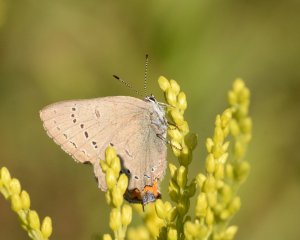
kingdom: Animalia
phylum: Arthropoda
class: Insecta
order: Lepidoptera
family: Lycaenidae
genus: Strymon
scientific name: Strymon acadica
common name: Acadian Hairstreak
